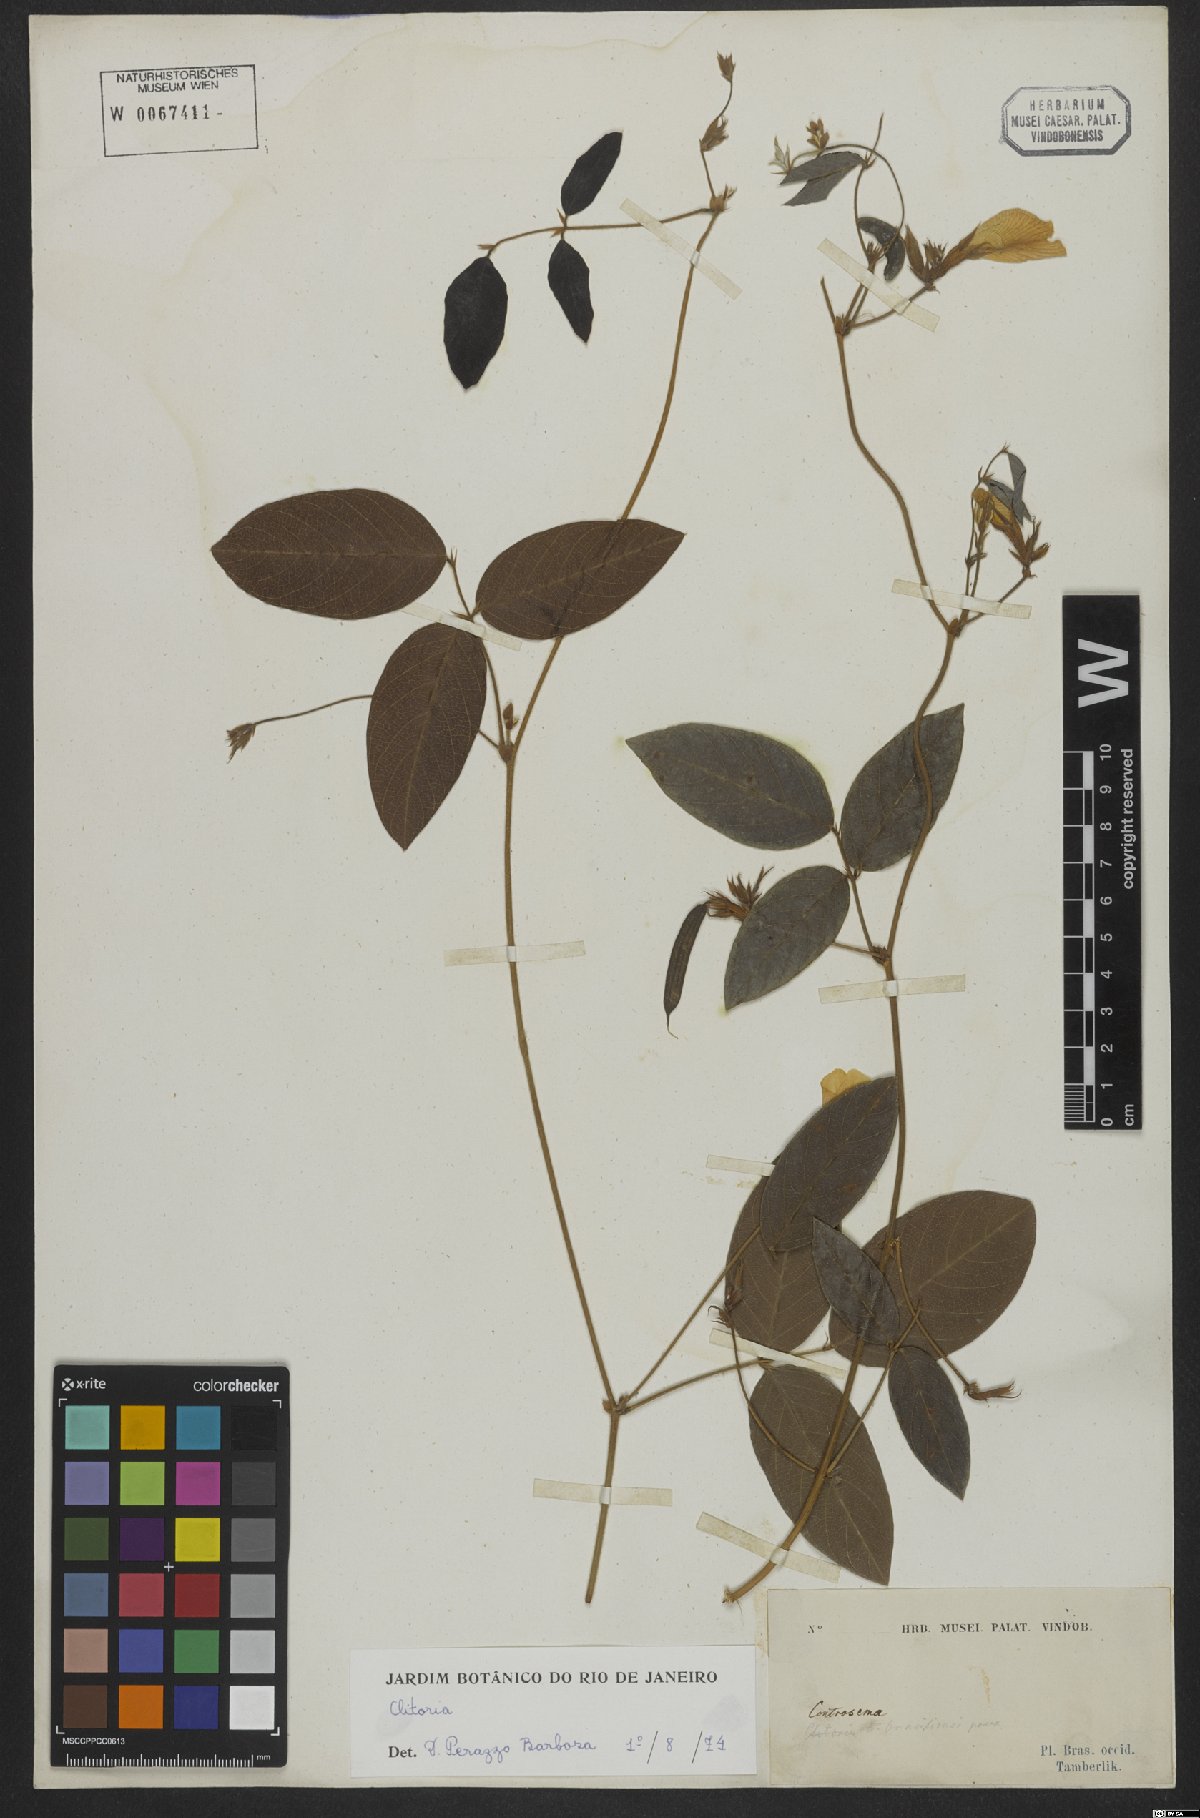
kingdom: Plantae
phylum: Tracheophyta
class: Magnoliopsida
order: Fabales
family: Fabaceae
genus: Clitoria
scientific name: Clitoria
